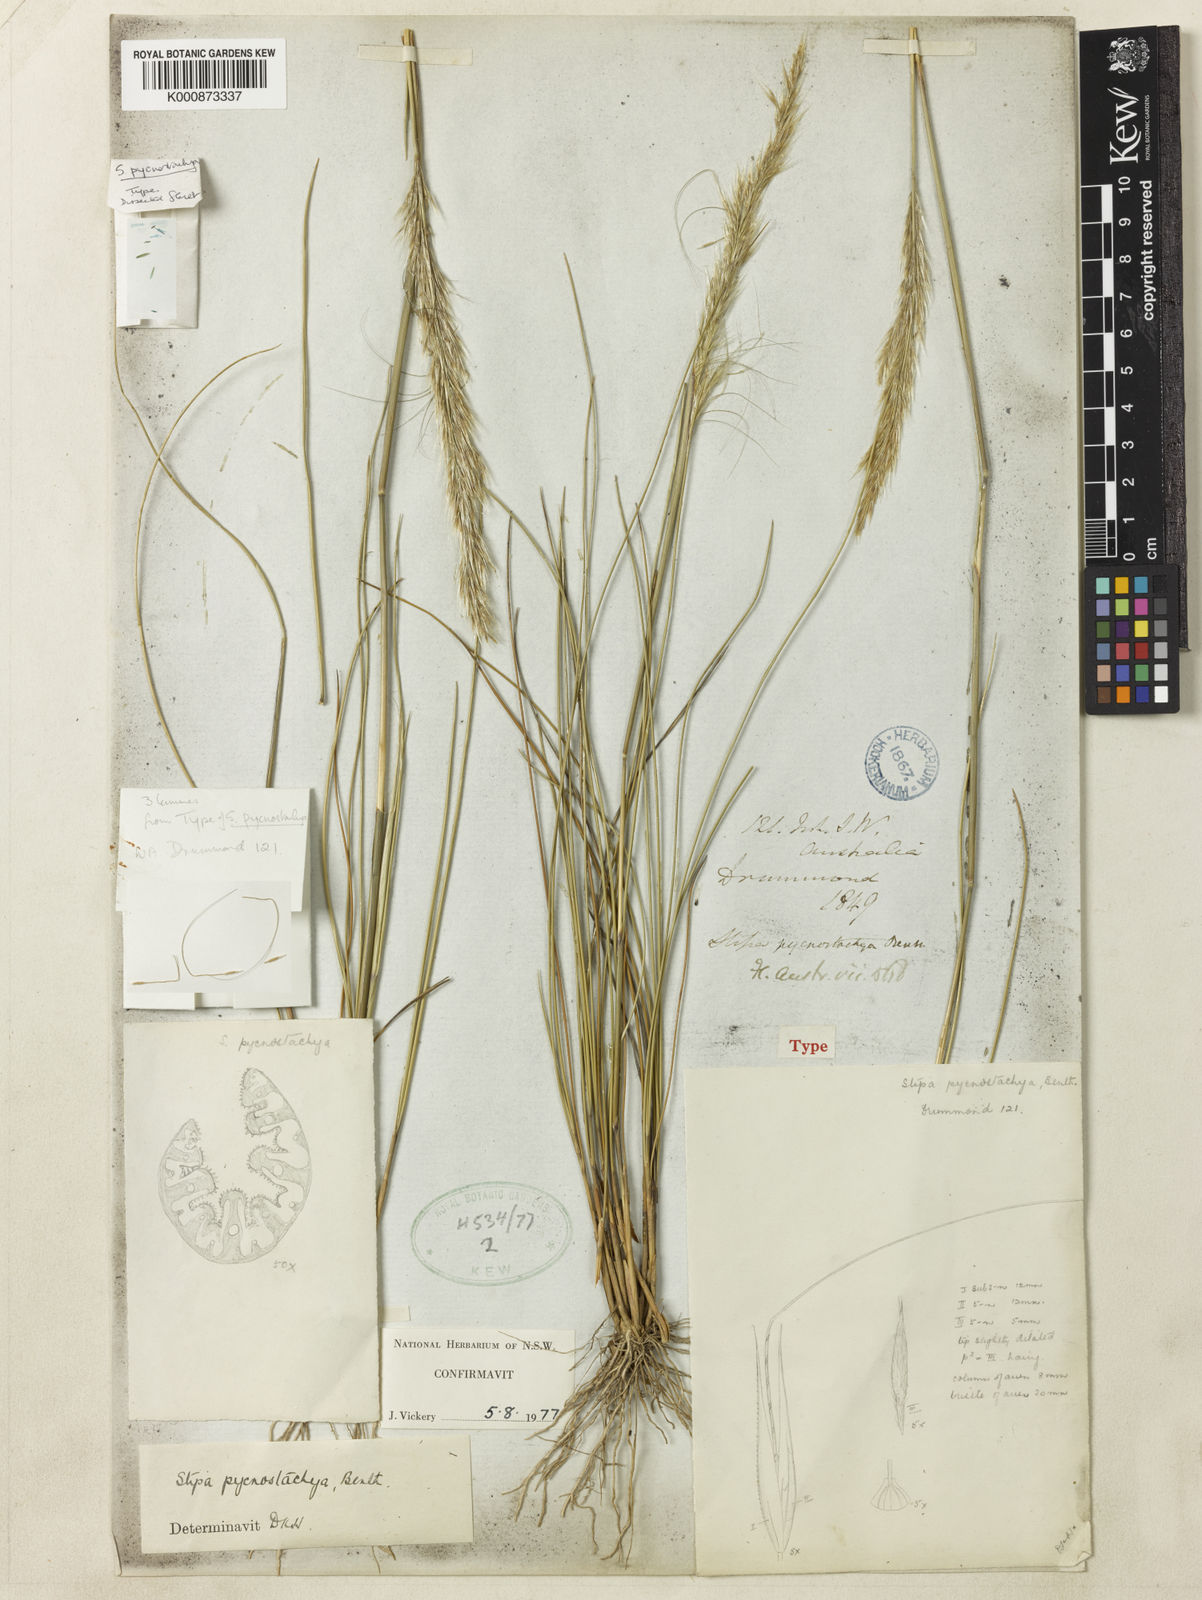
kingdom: Plantae
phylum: Tracheophyta
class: Liliopsida
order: Poales
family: Poaceae
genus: Austrostipa
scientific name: Austrostipa pycnostachya
